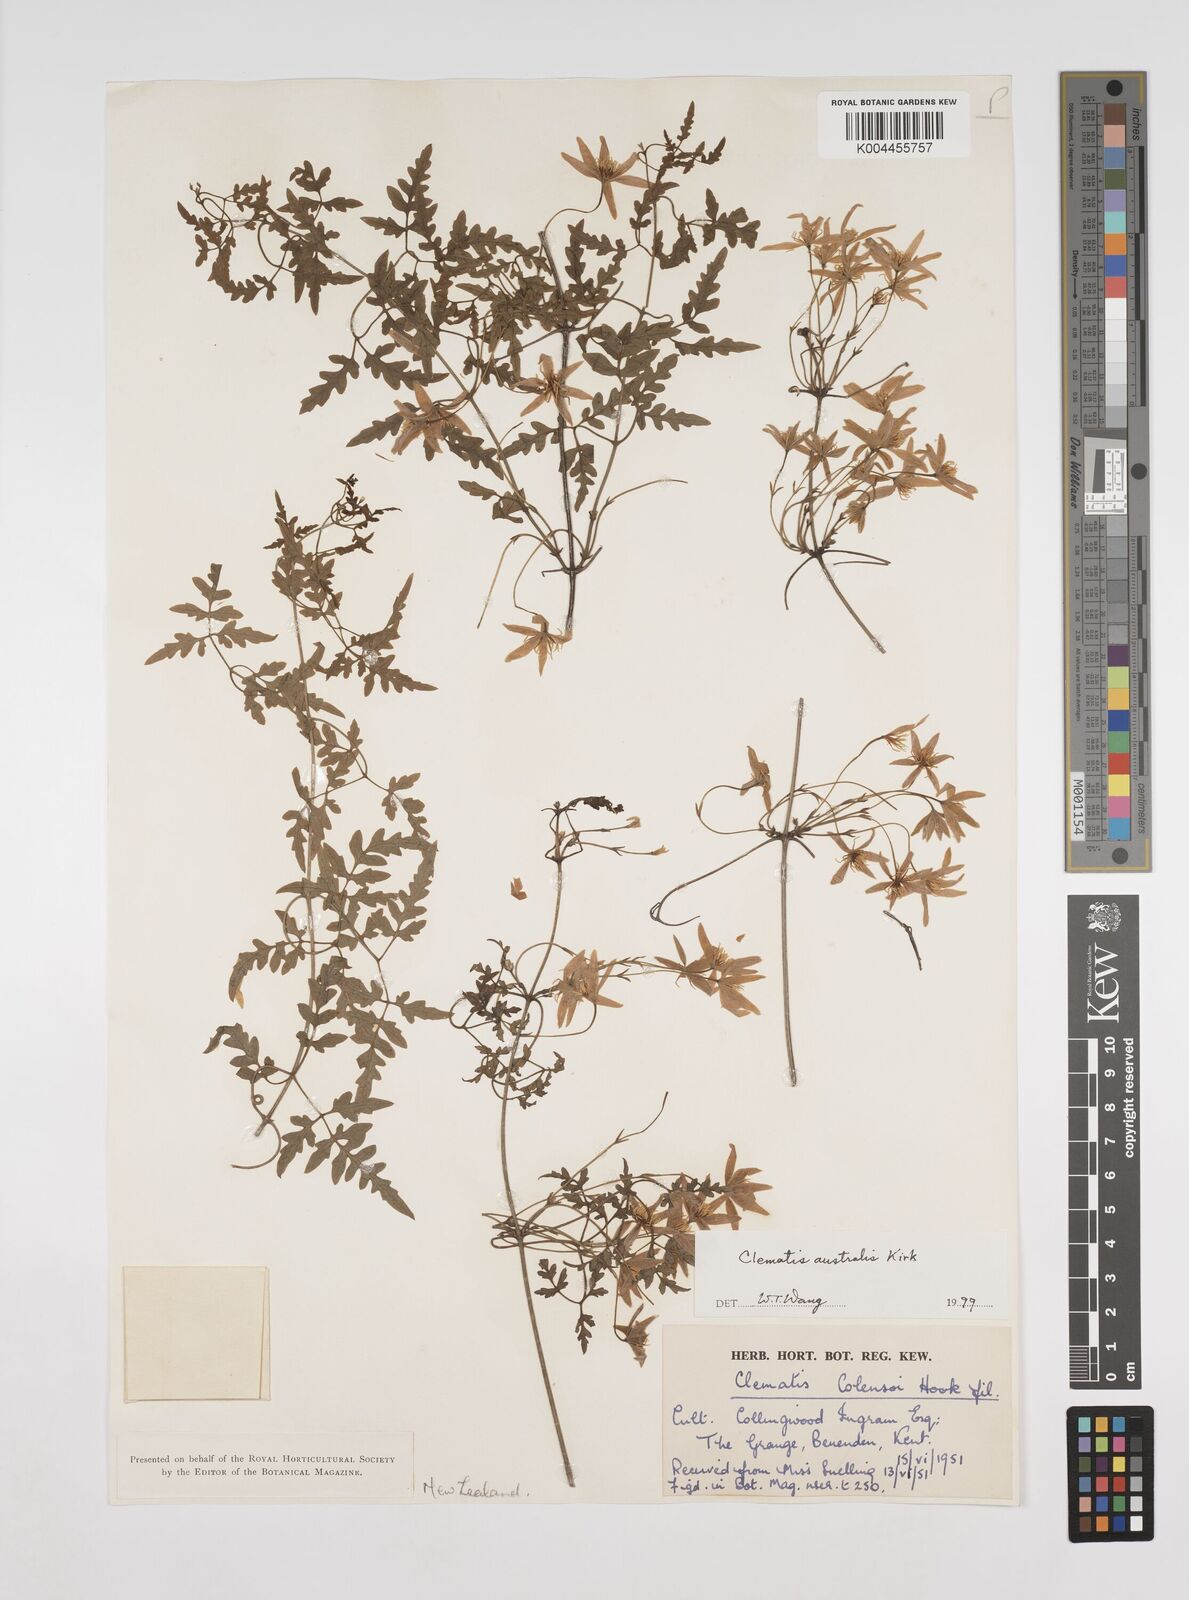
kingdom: Plantae
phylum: Tracheophyta
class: Magnoliopsida
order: Ranunculales
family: Ranunculaceae
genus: Clematis
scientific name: Clematis forsteri
